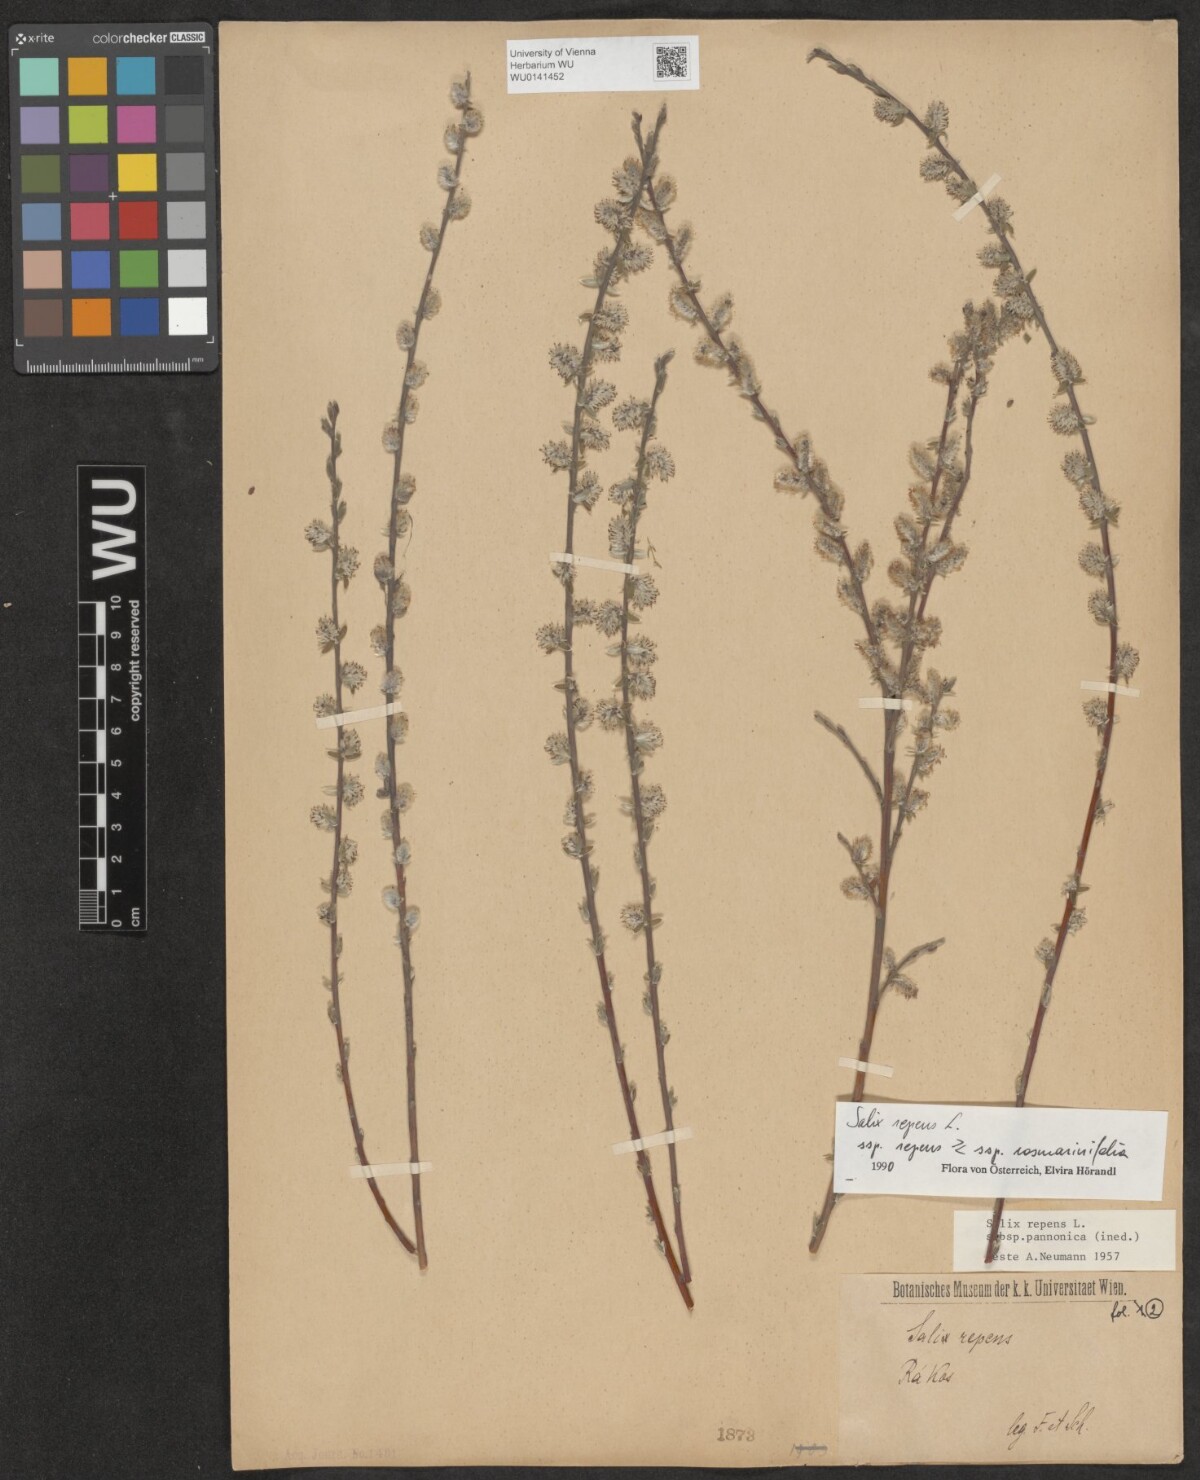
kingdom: Plantae
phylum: Tracheophyta
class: Magnoliopsida
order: Malpighiales
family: Salicaceae
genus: Salix
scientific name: Salix repens
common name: Creeping willow
